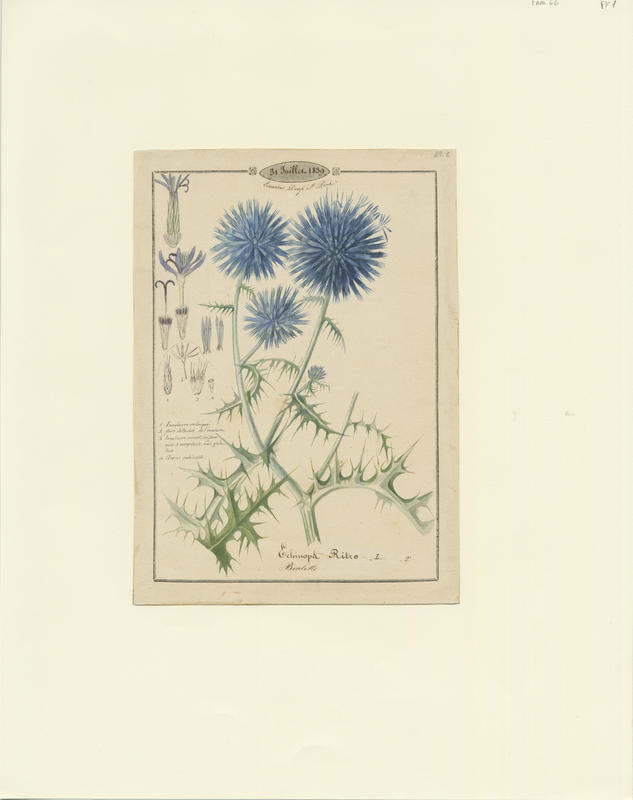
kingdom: Plantae
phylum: Tracheophyta
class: Magnoliopsida
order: Asterales
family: Asteraceae
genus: Echinops
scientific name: Echinops ritro
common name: Globe thistle
